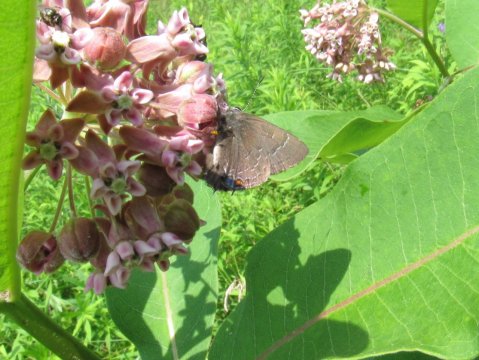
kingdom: Animalia
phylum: Arthropoda
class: Insecta
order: Lepidoptera
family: Lycaenidae
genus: Satyrium
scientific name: Satyrium calanus
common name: Banded Hairstreak
